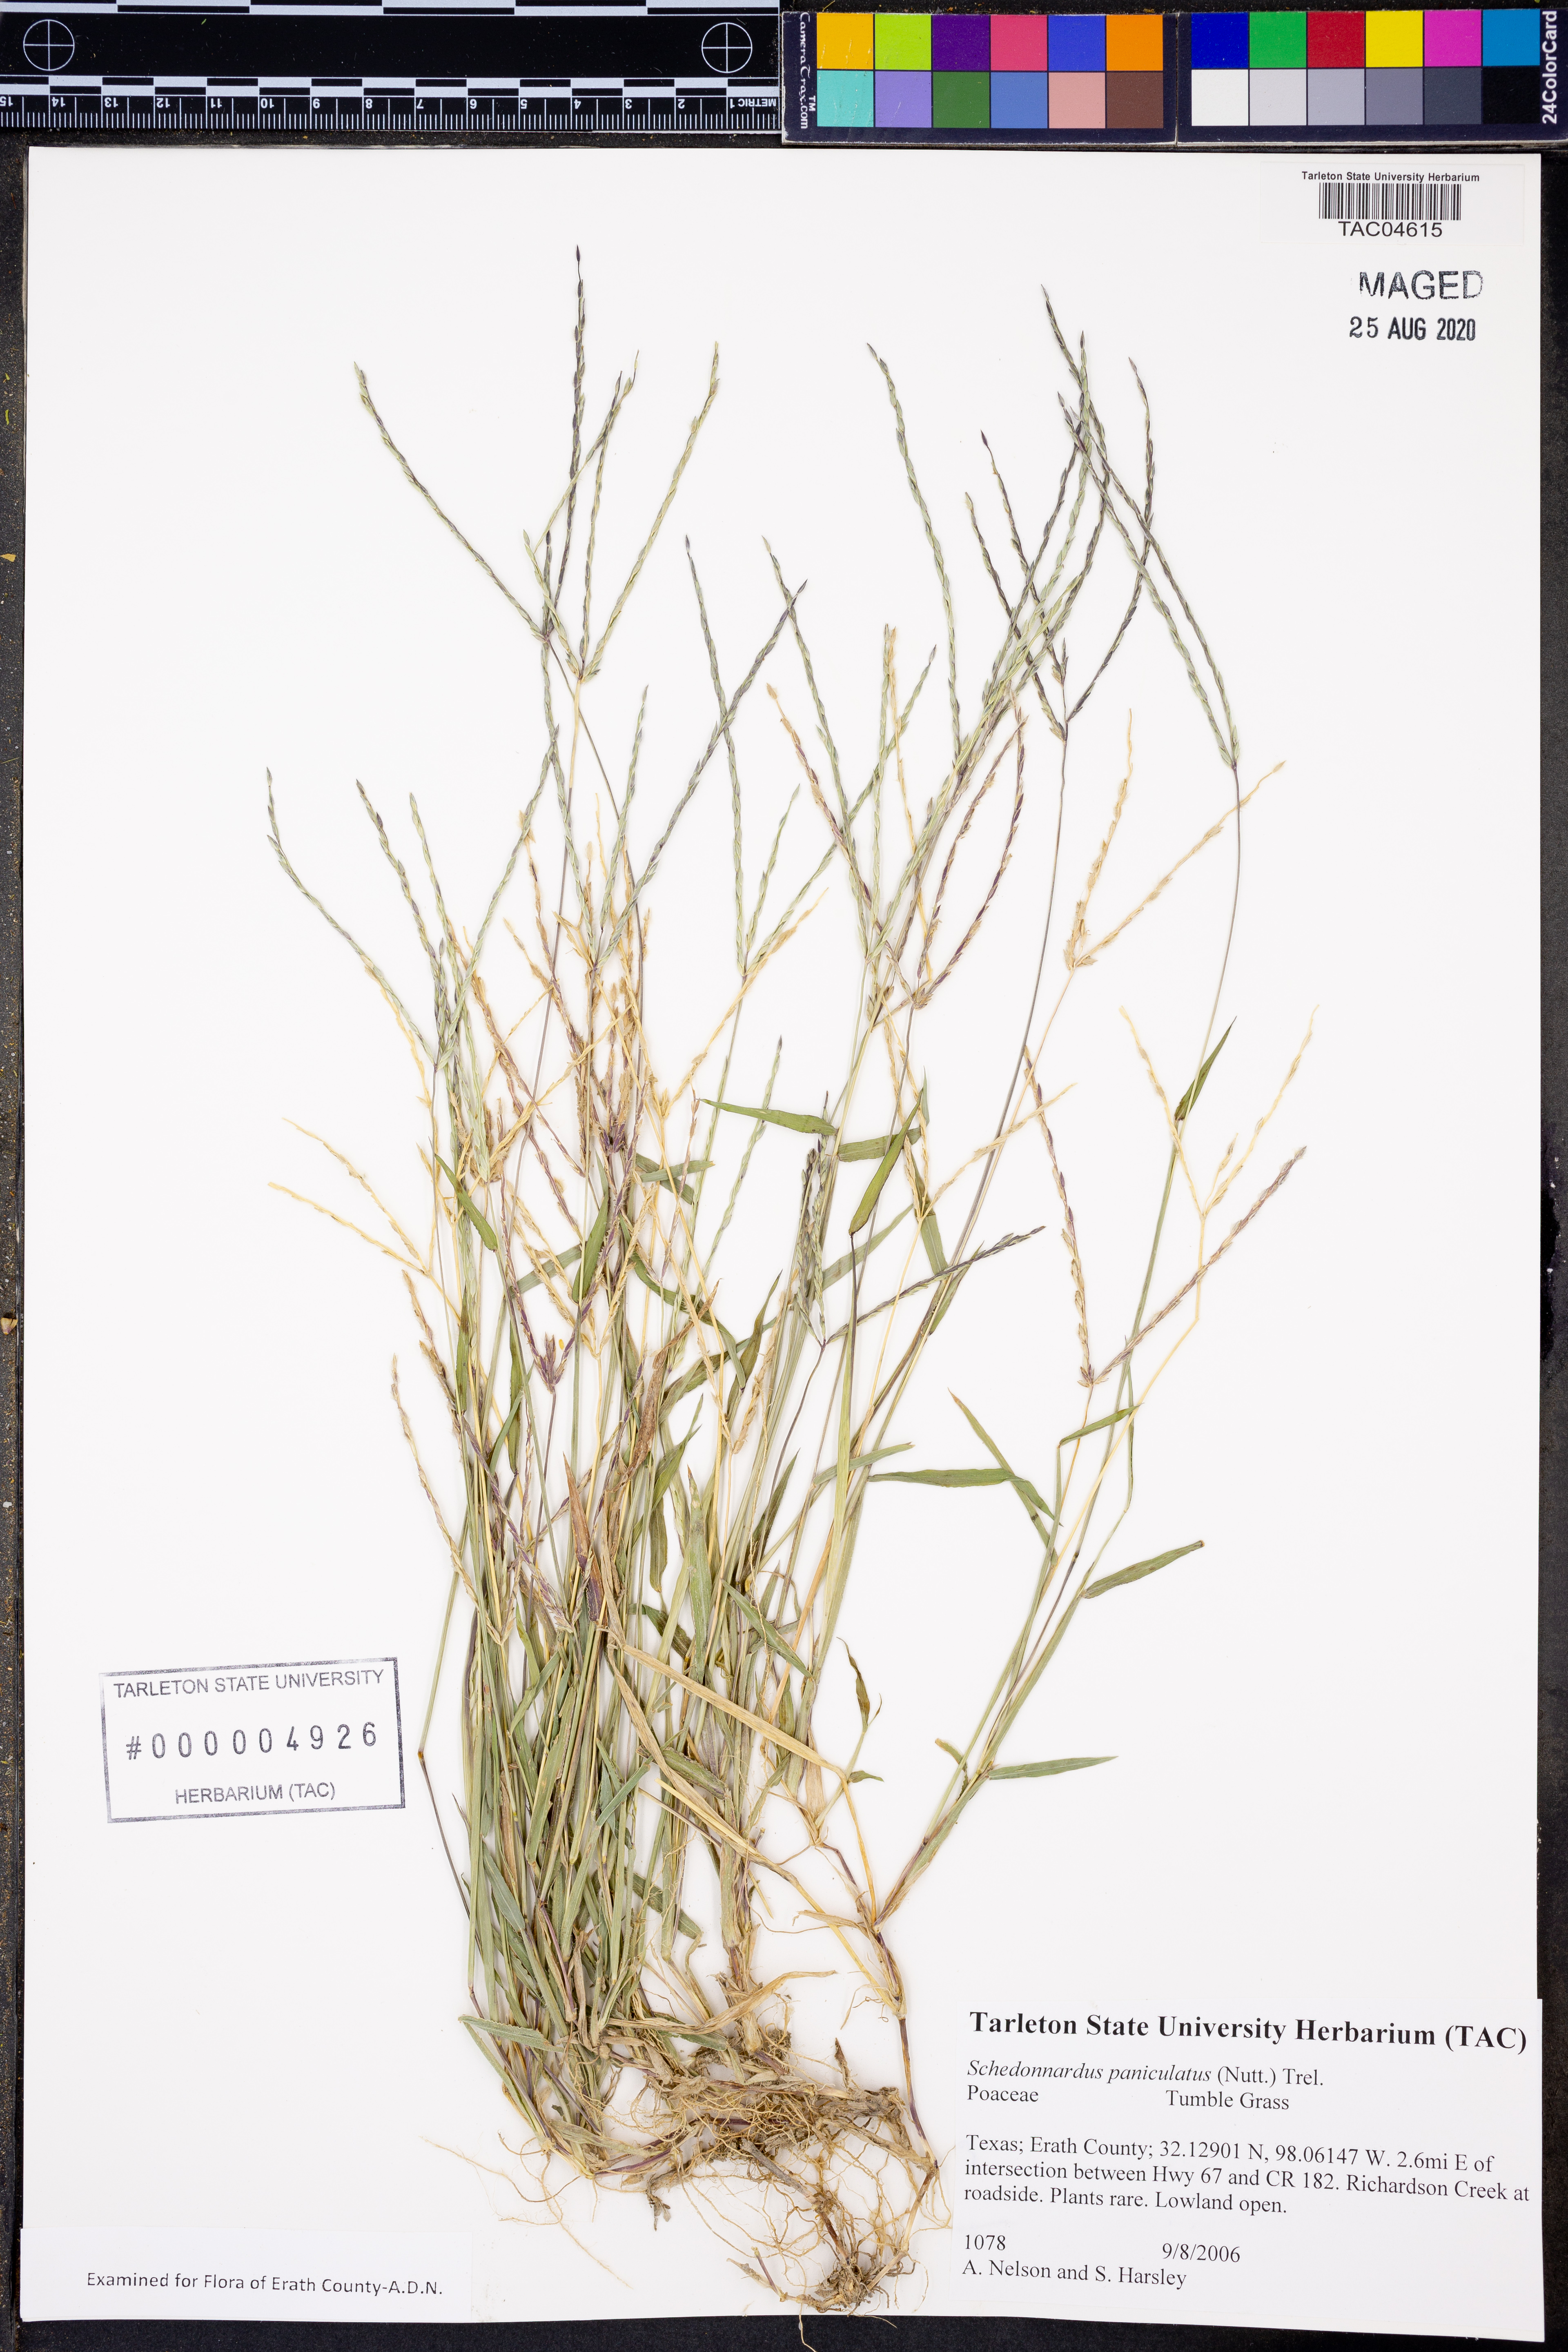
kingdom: Plantae
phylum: Tracheophyta
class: Liliopsida
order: Poales
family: Poaceae
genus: Muhlenbergia
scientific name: Muhlenbergia paniculata
